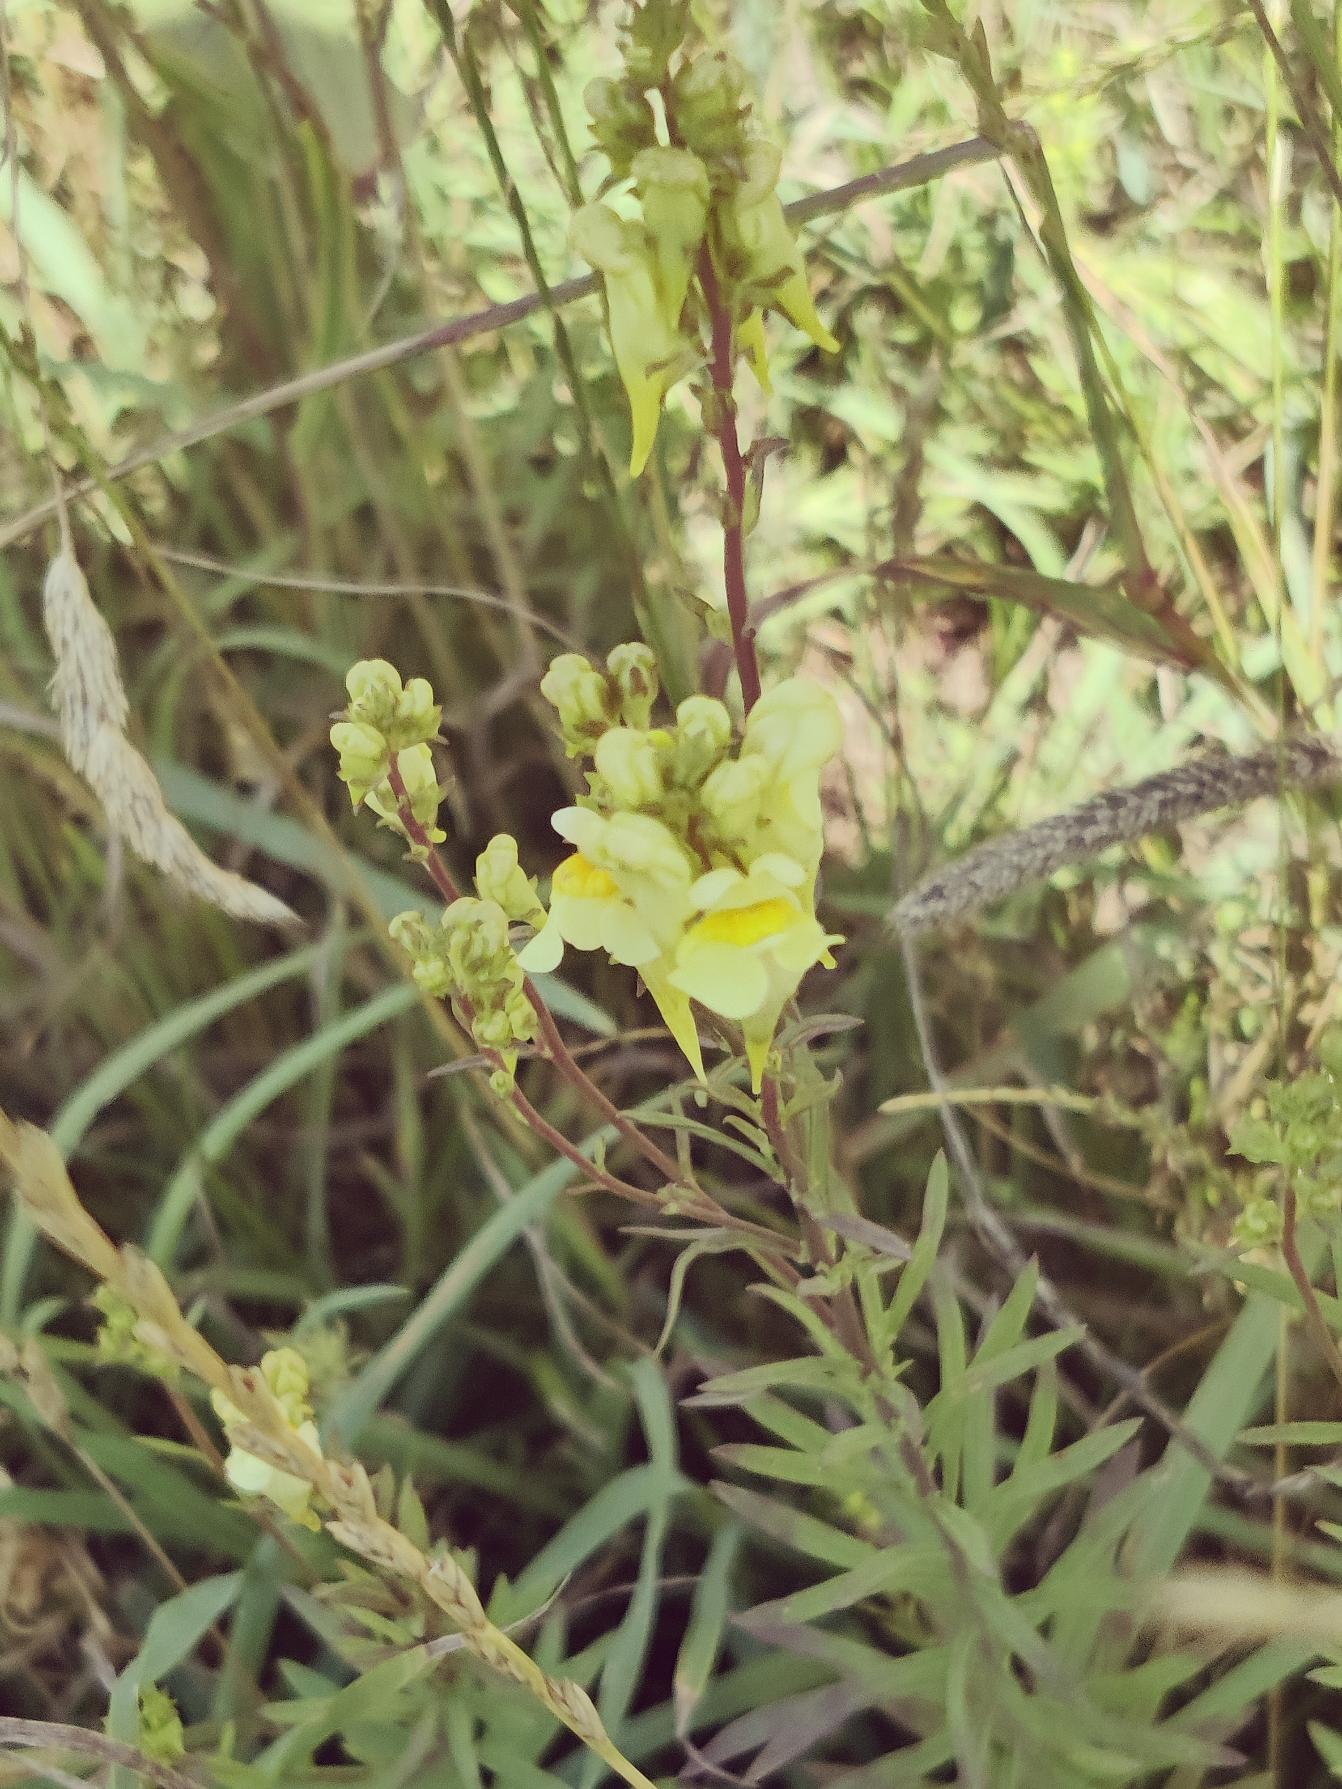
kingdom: Plantae
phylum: Tracheophyta
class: Magnoliopsida
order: Lamiales
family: Plantaginaceae
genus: Linaria
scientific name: Linaria vulgaris
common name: Almindelig torskemund
